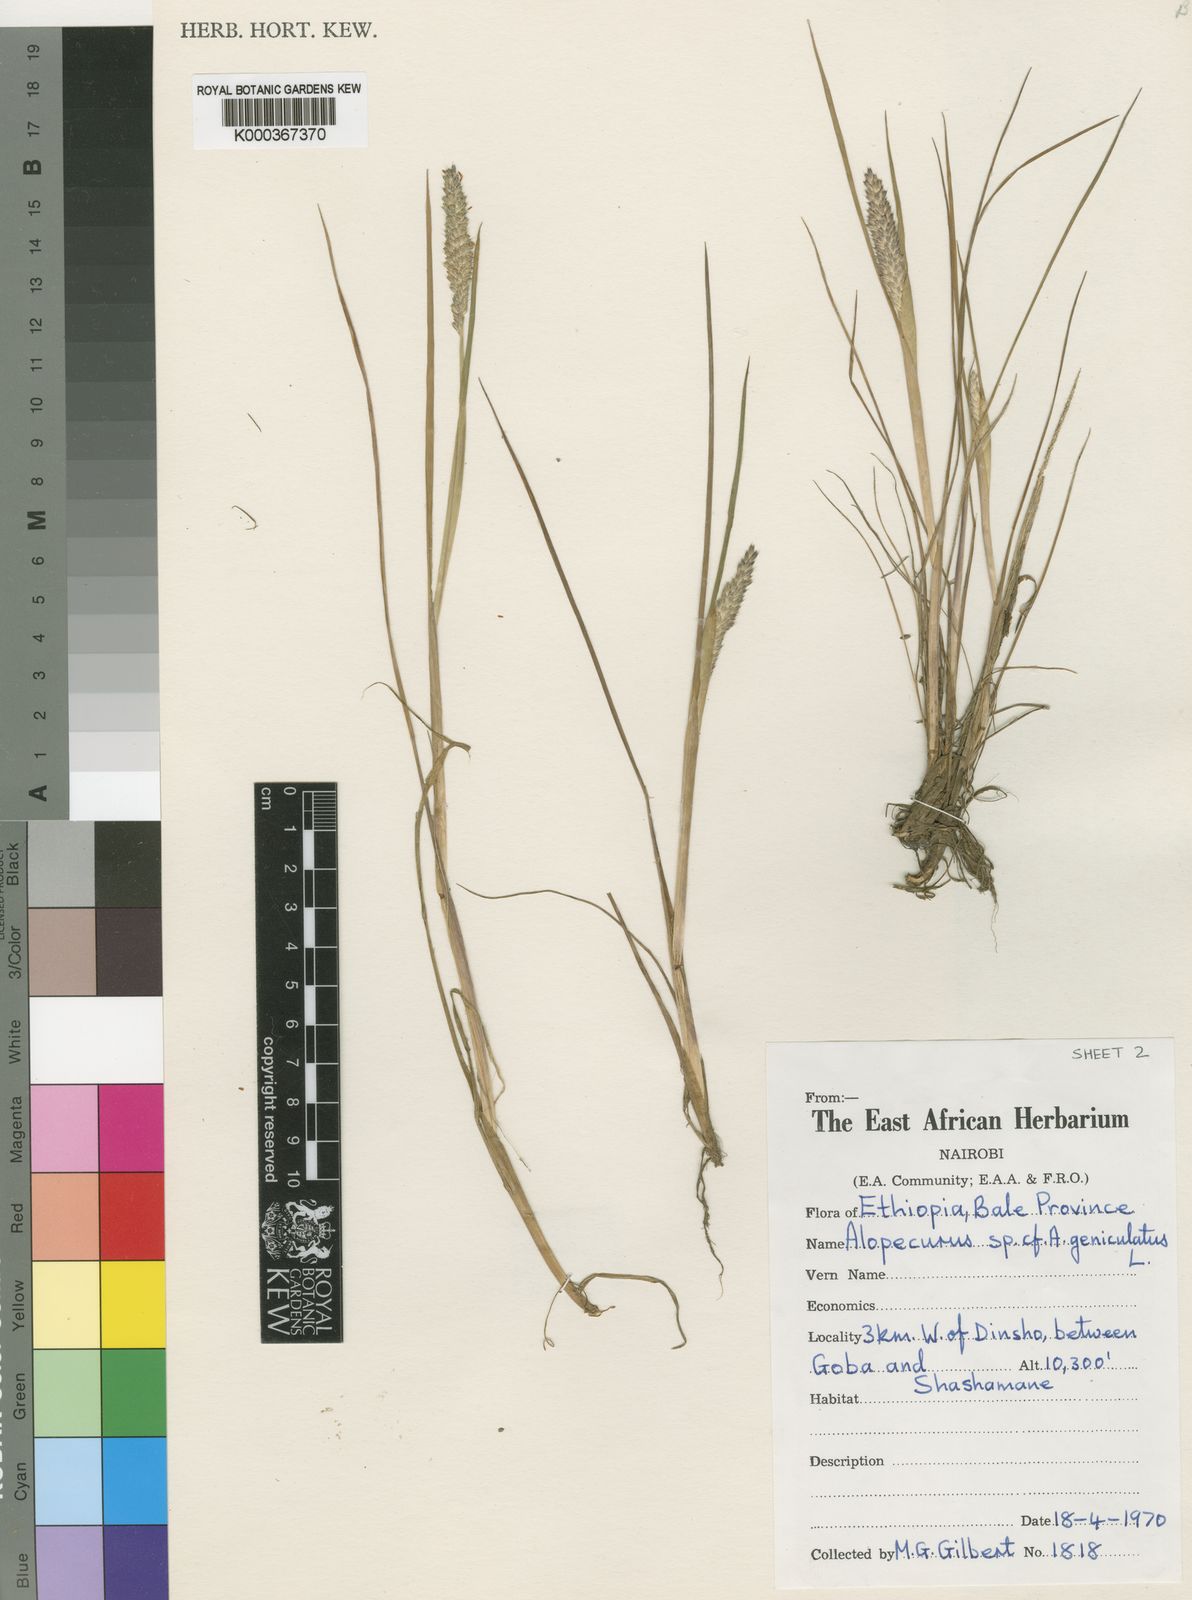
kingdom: Plantae
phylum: Tracheophyta
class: Liliopsida
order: Poales
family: Poaceae
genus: Alopecurus
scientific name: Alopecurus baptarrhenius
